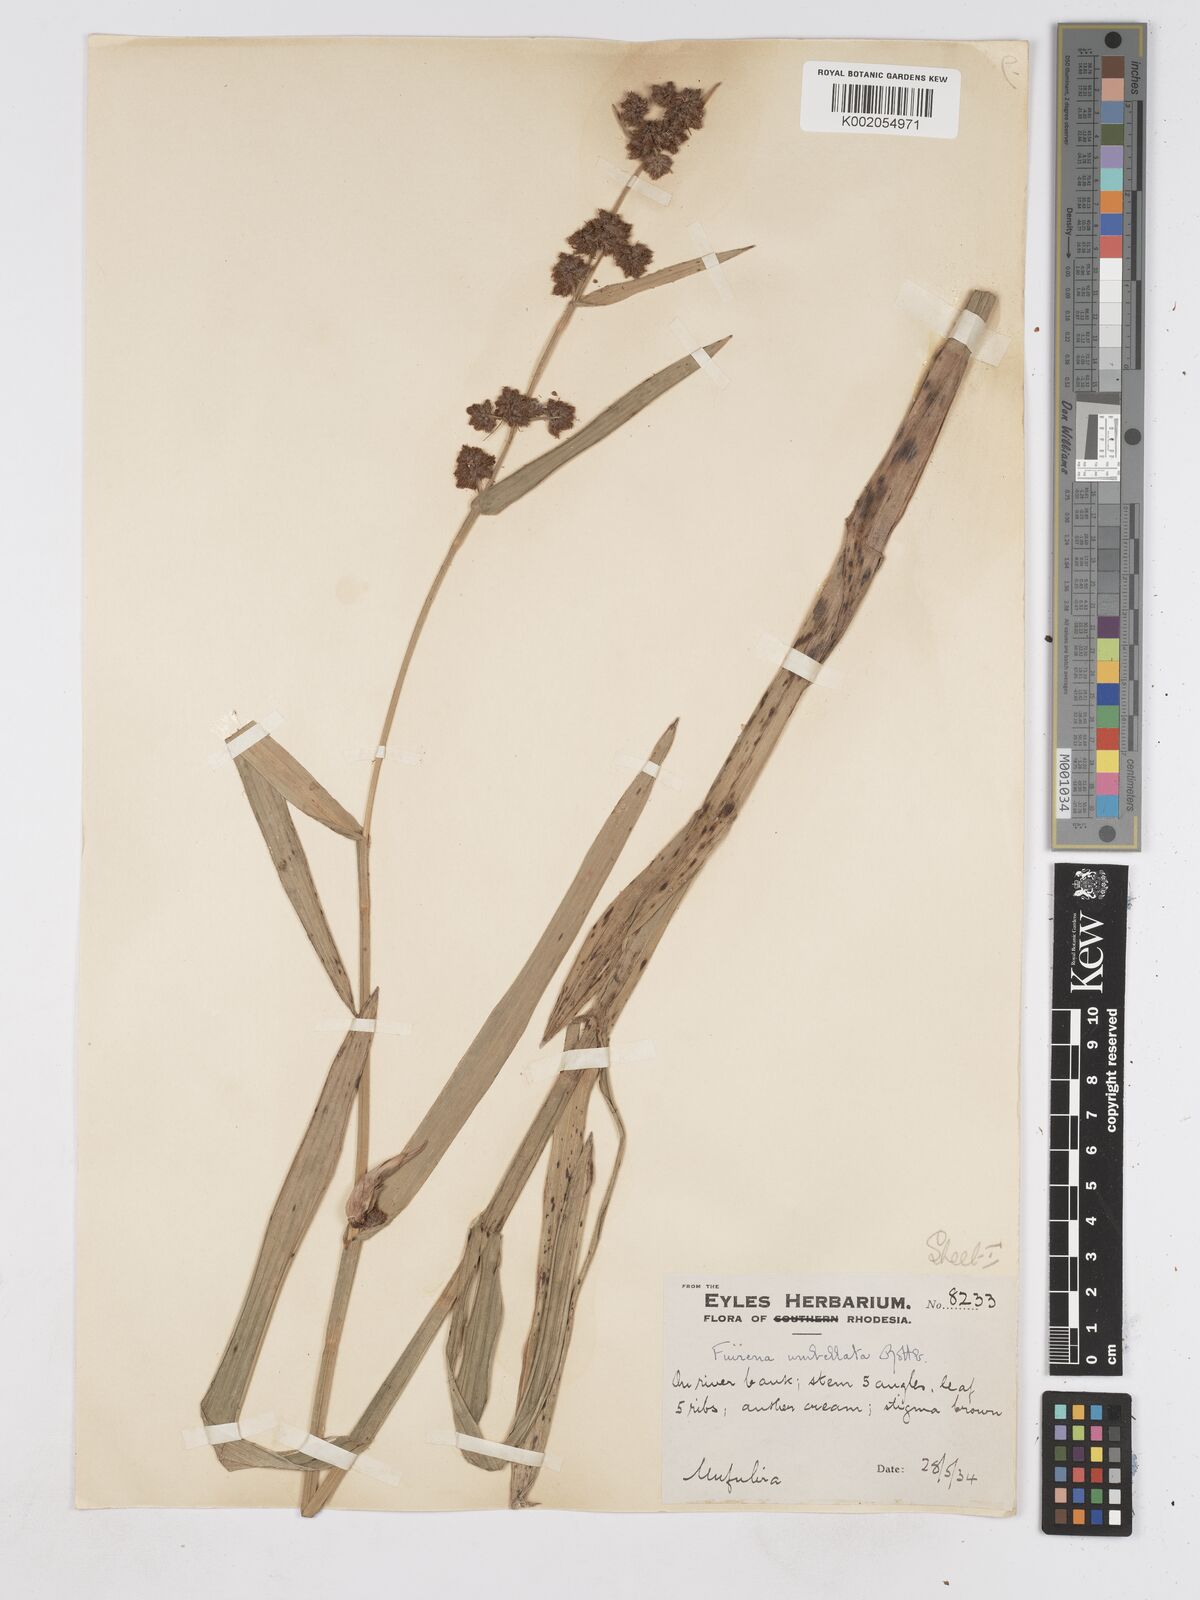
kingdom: Plantae
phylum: Tracheophyta
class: Liliopsida
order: Poales
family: Cyperaceae
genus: Fuirena
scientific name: Fuirena umbellata
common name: Yefen
